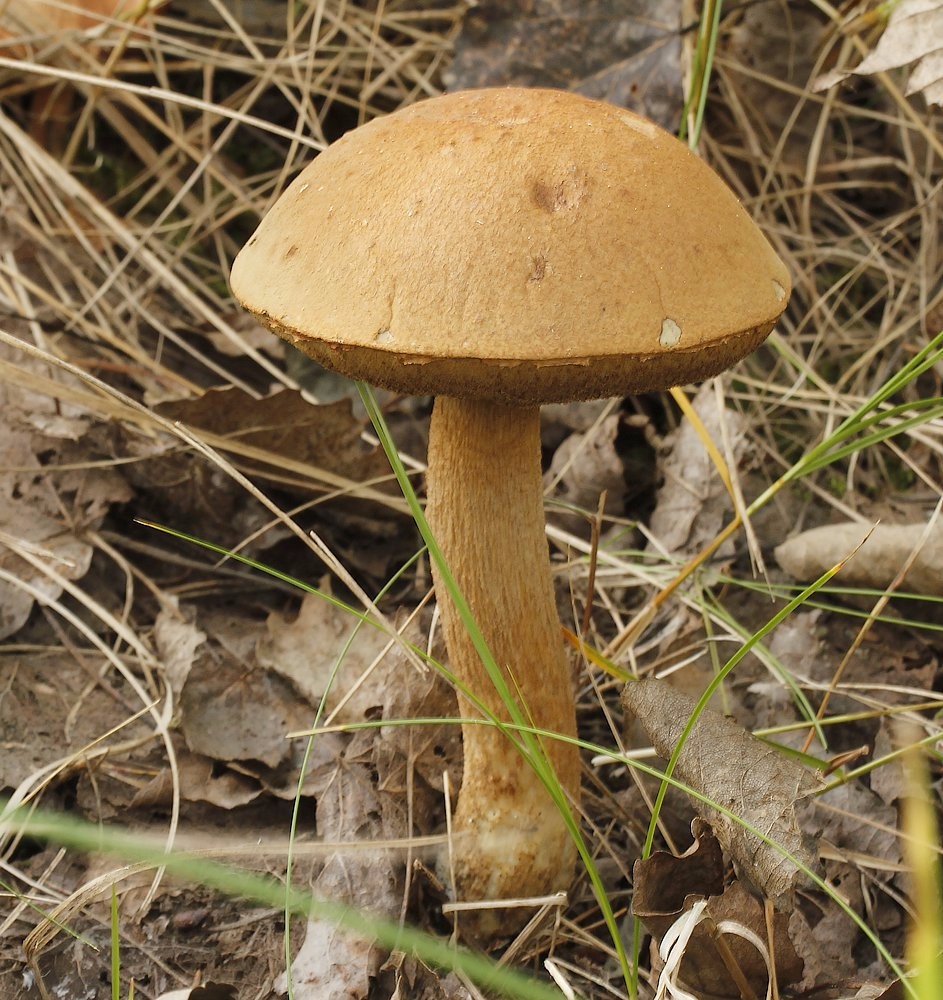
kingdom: Fungi
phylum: Basidiomycota
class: Agaricomycetes
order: Boletales
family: Boletaceae
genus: Leccinum
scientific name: Leccinum
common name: skælrørhat
